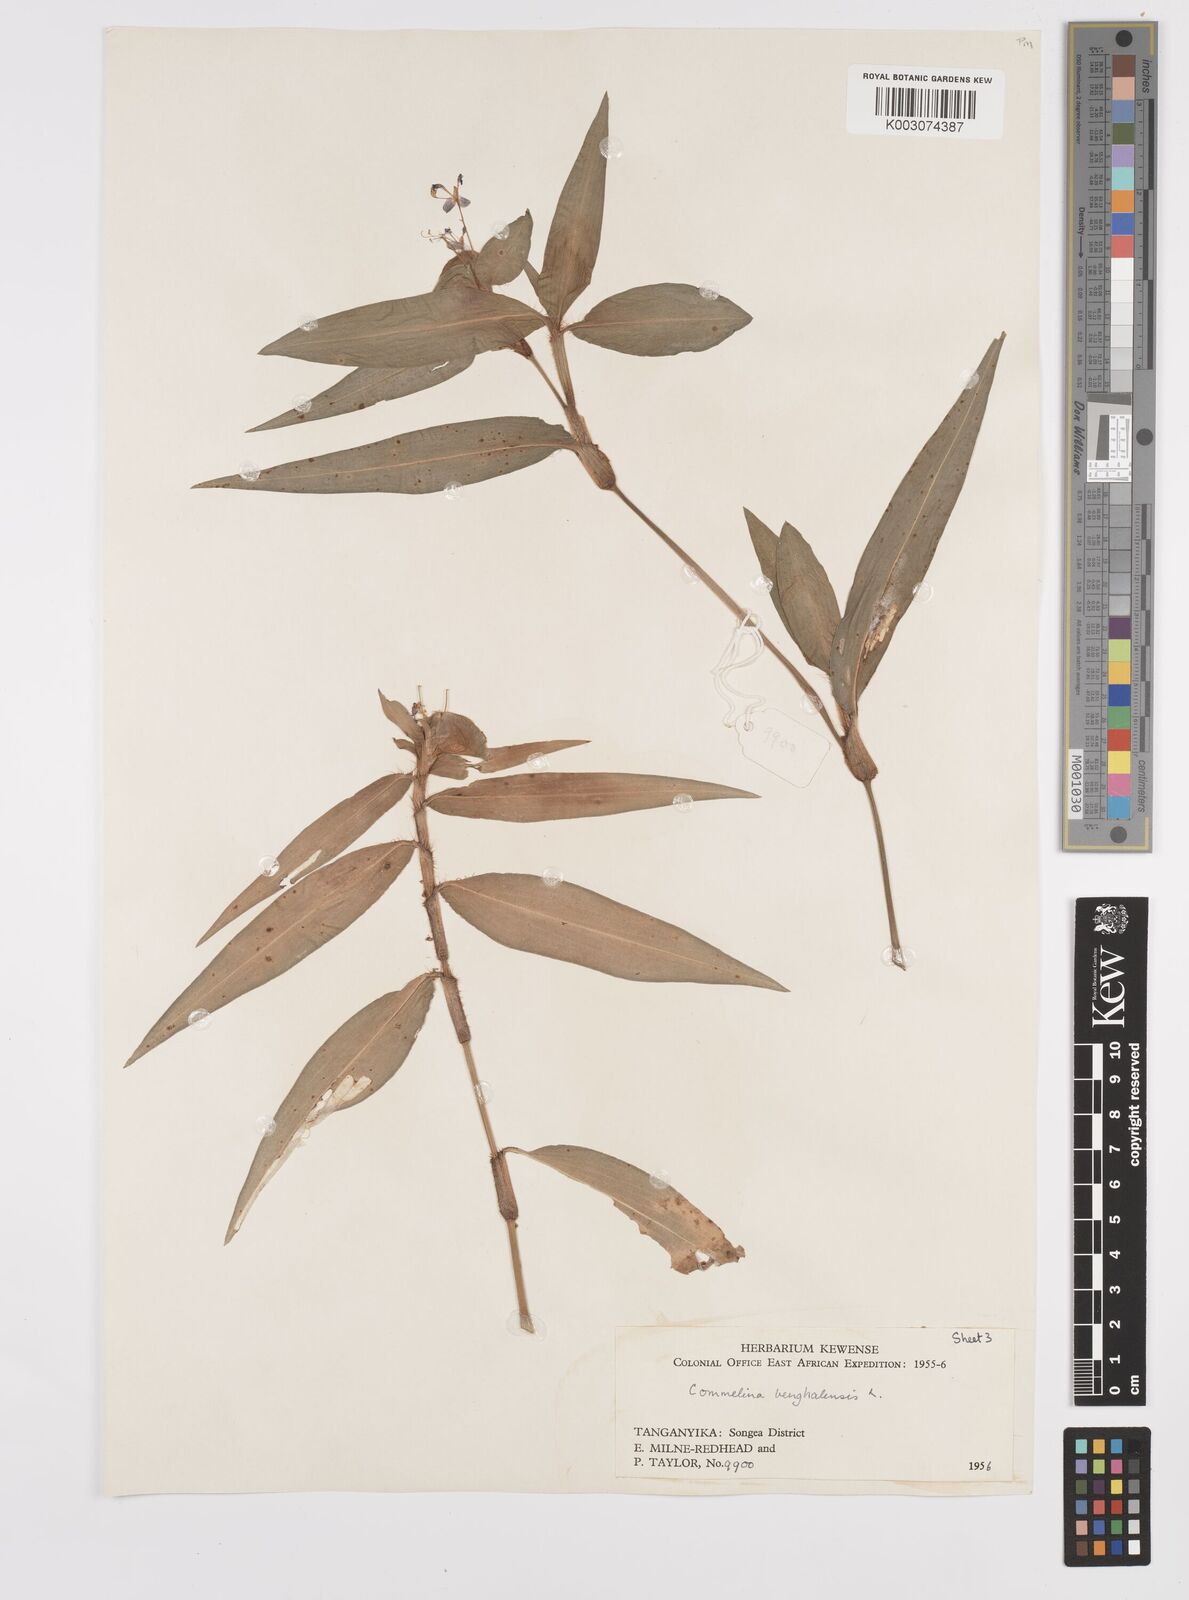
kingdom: Plantae
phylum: Tracheophyta
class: Liliopsida
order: Commelinales
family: Commelinaceae
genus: Commelina
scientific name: Commelina benghalensis
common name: Jio
